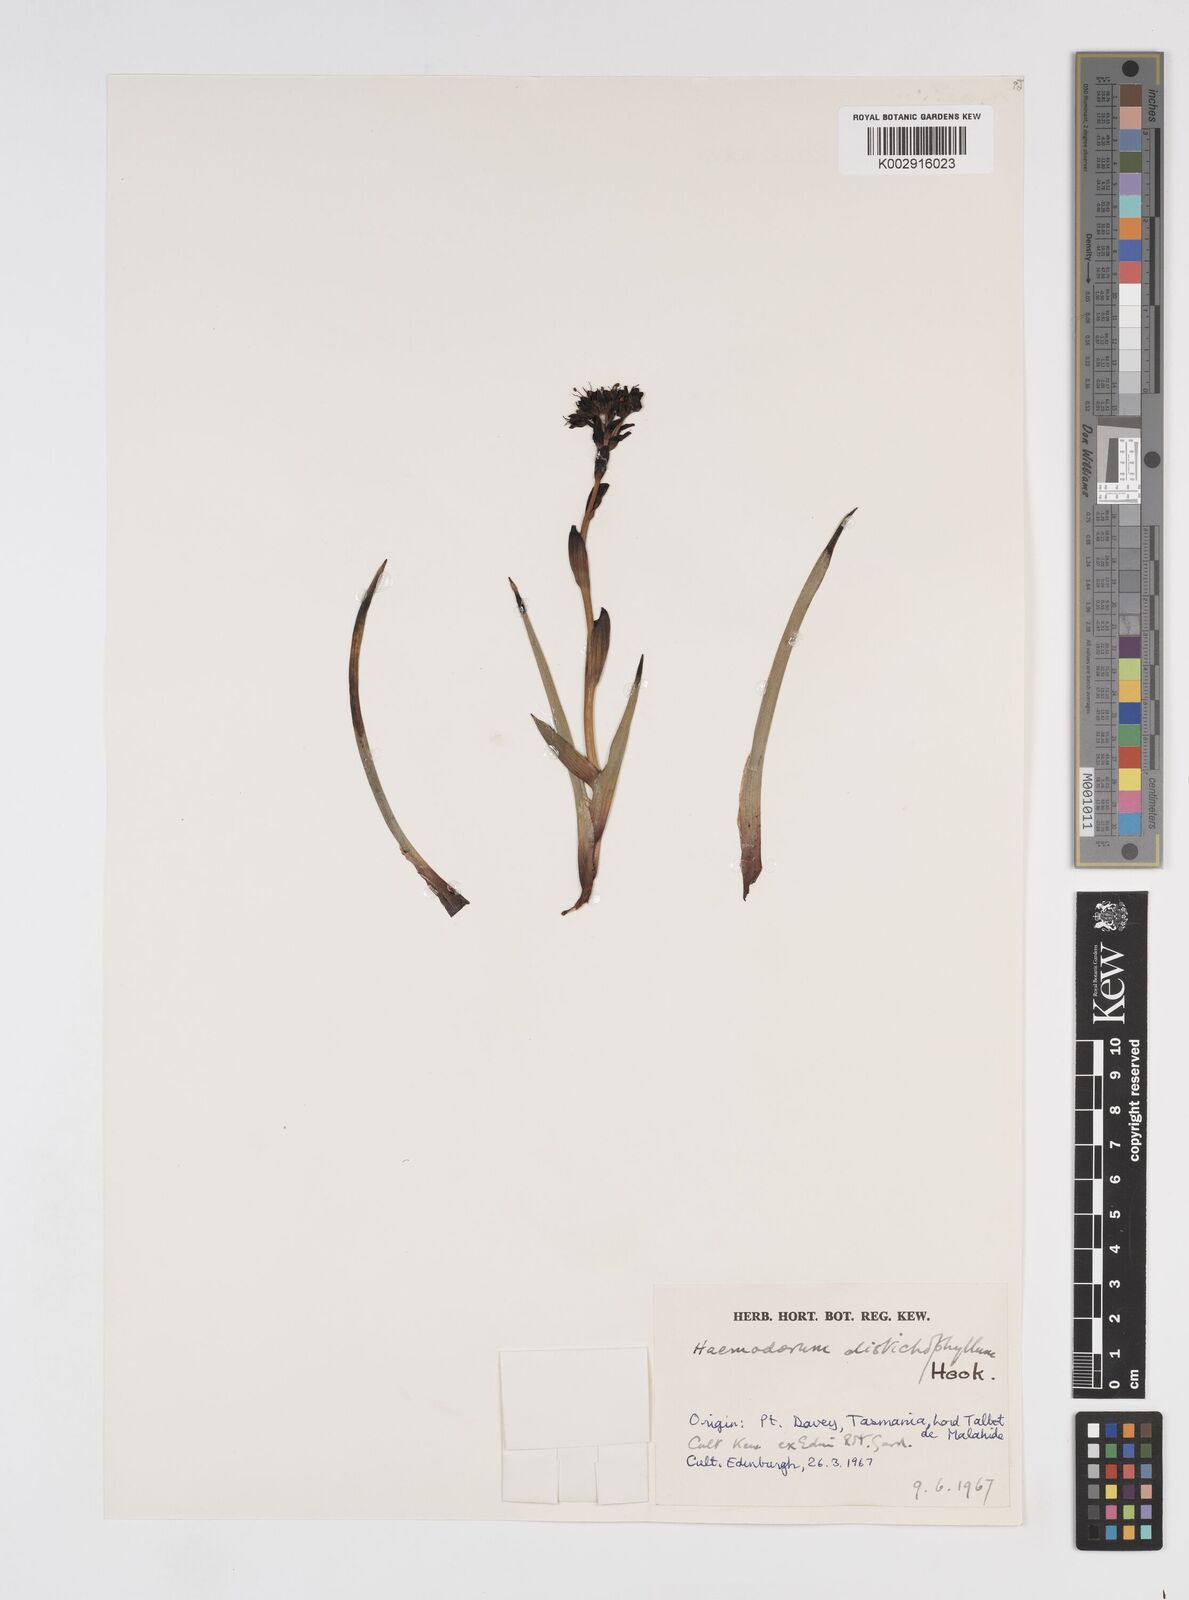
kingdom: Plantae
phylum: Tracheophyta
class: Liliopsida
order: Commelinales
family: Haemodoraceae
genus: Haemodorum
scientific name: Haemodorum distichophyllum
